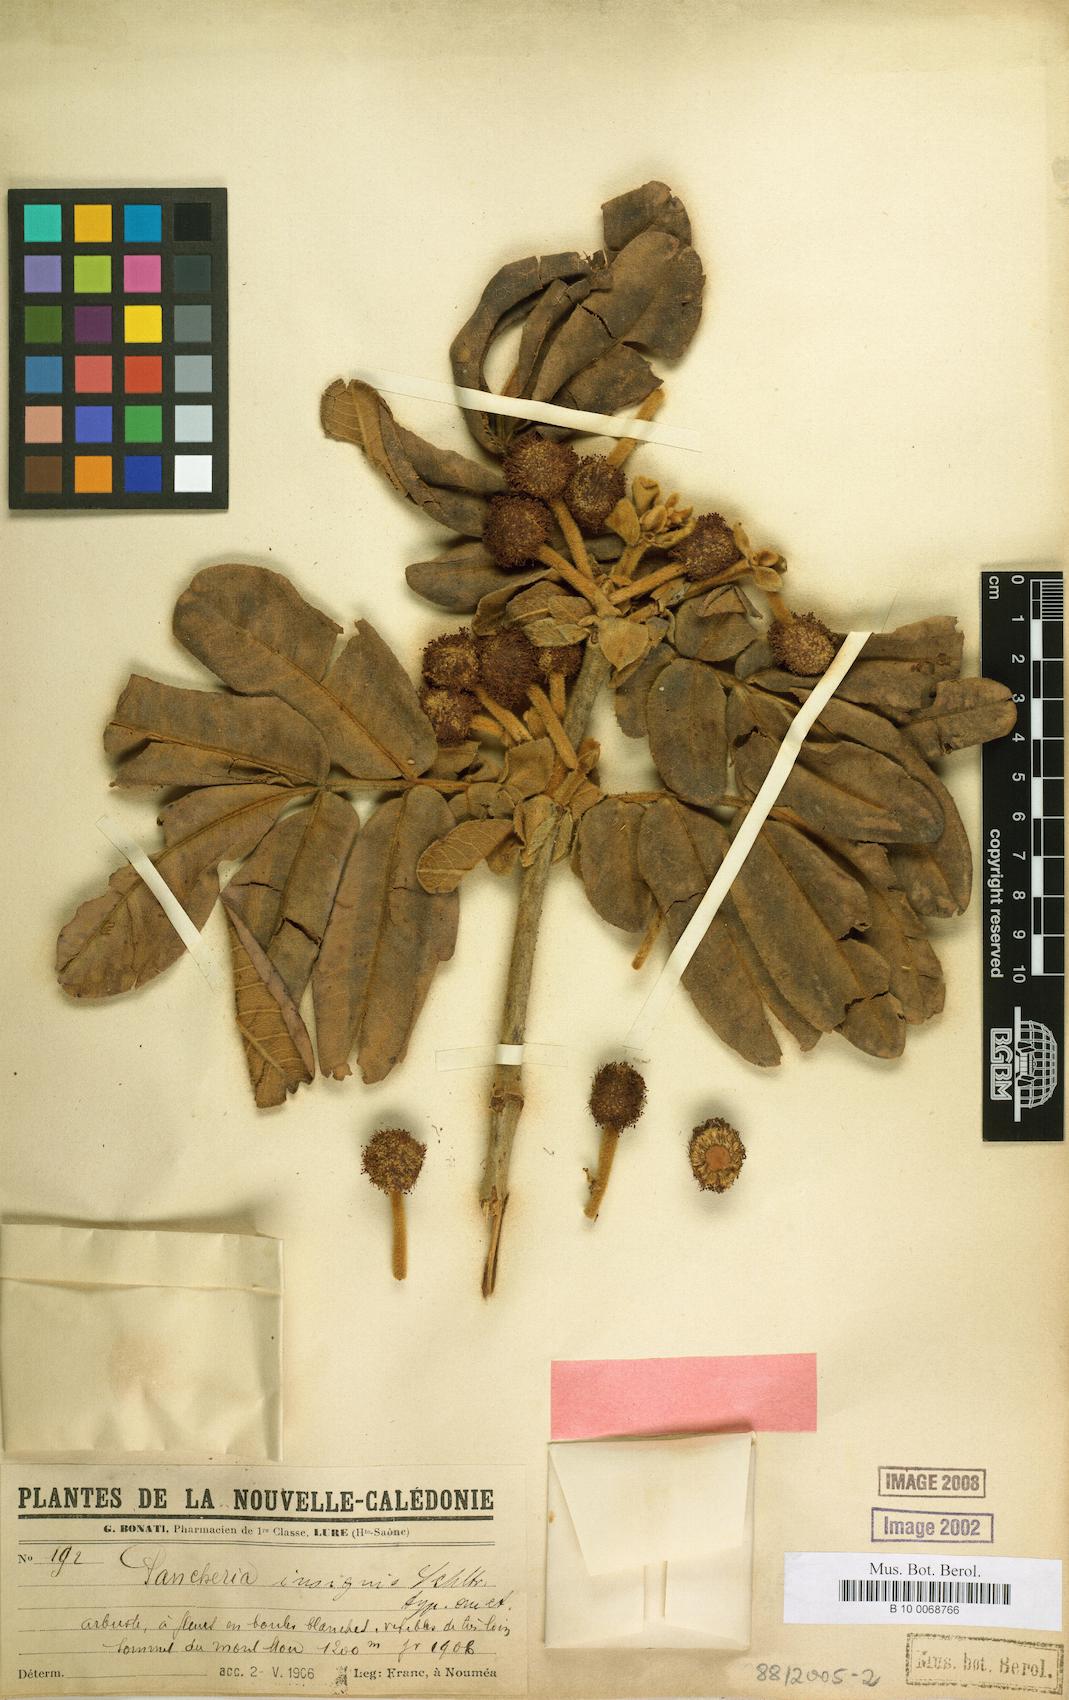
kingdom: Plantae
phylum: Tracheophyta
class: Magnoliopsida
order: Oxalidales
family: Cunoniaceae
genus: Pancheria
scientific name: Pancheria hirsuta
